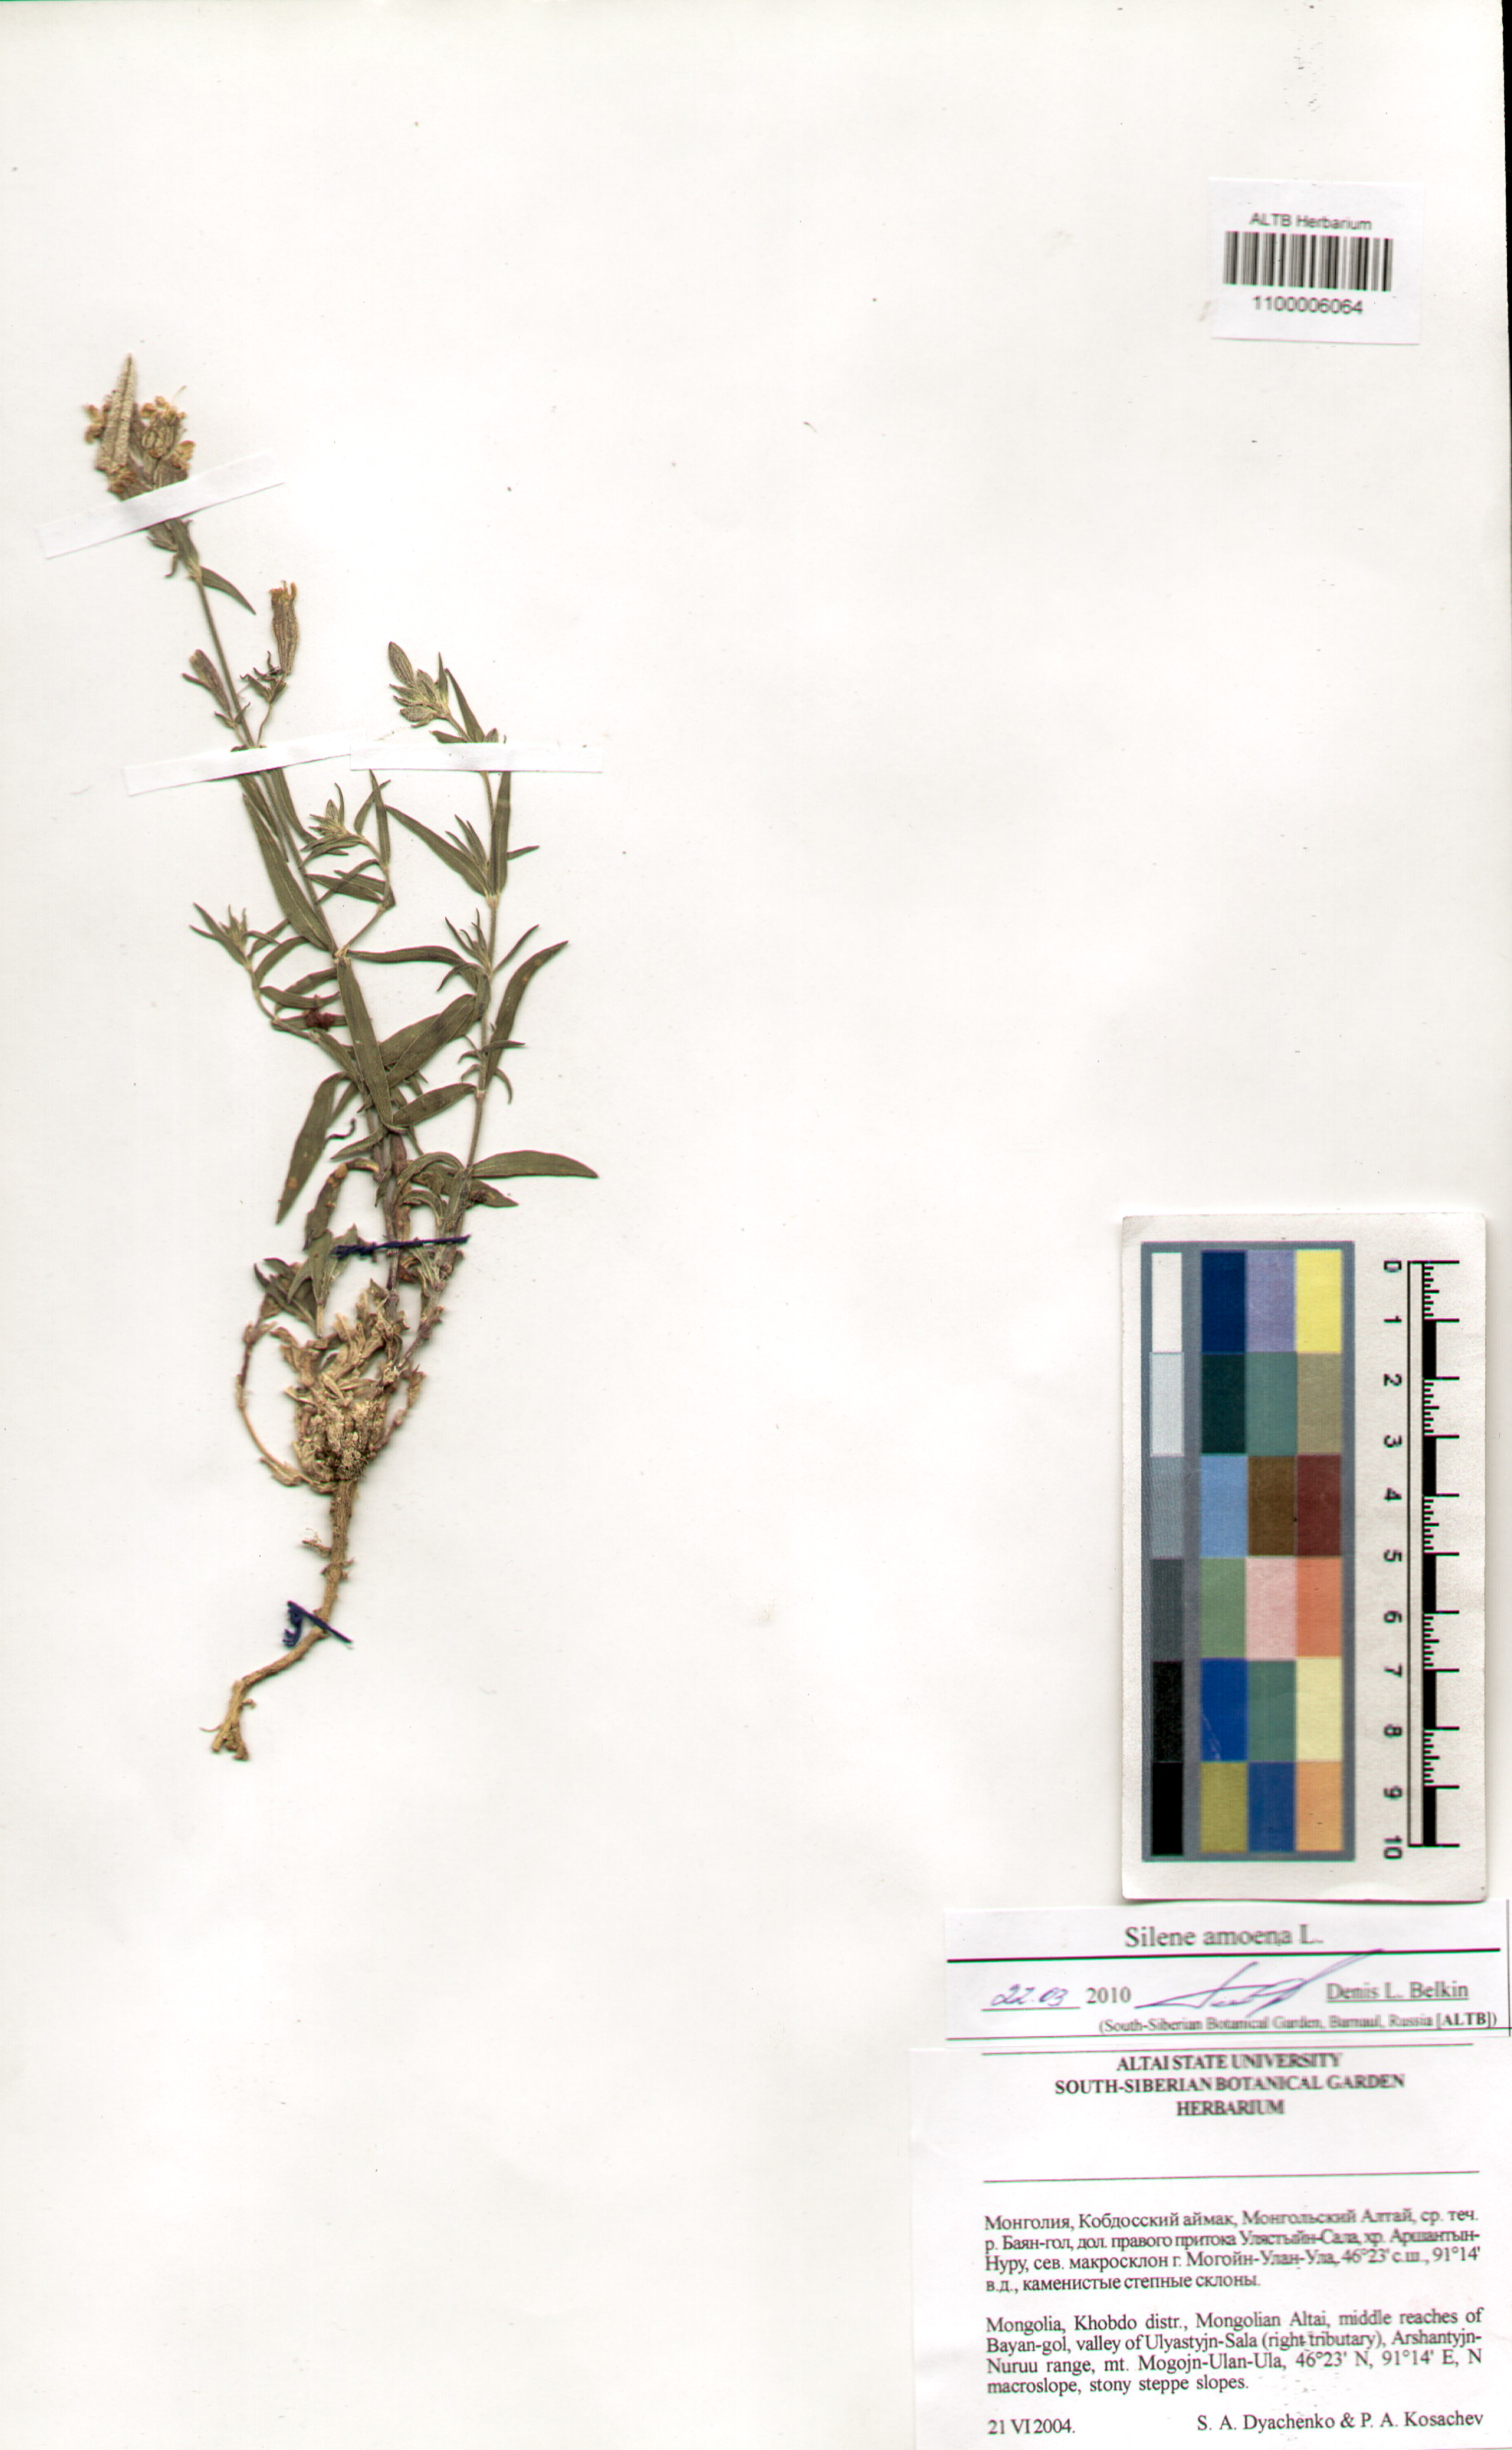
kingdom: Plantae
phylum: Tracheophyta
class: Magnoliopsida
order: Caryophyllales
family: Caryophyllaceae
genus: Silene
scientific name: Silene amoena
